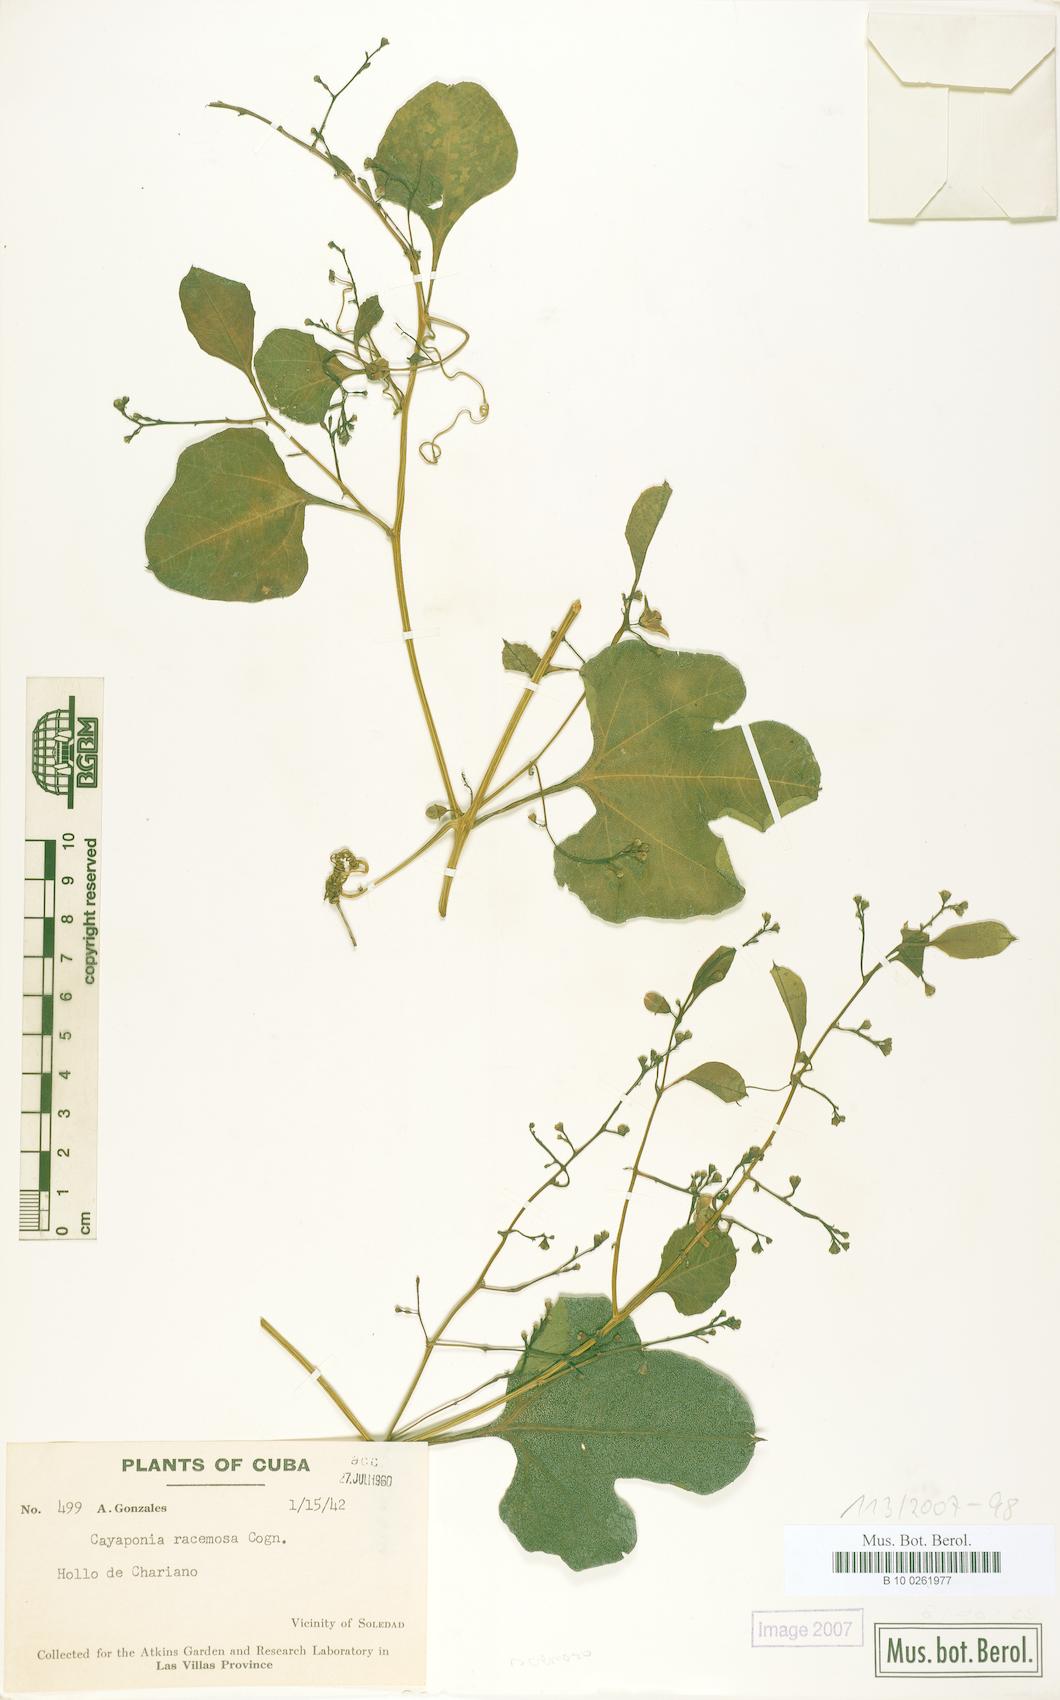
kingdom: Plantae
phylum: Tracheophyta
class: Magnoliopsida
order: Cucurbitales
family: Cucurbitaceae
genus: Cayaponia
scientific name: Cayaponia racemosa
